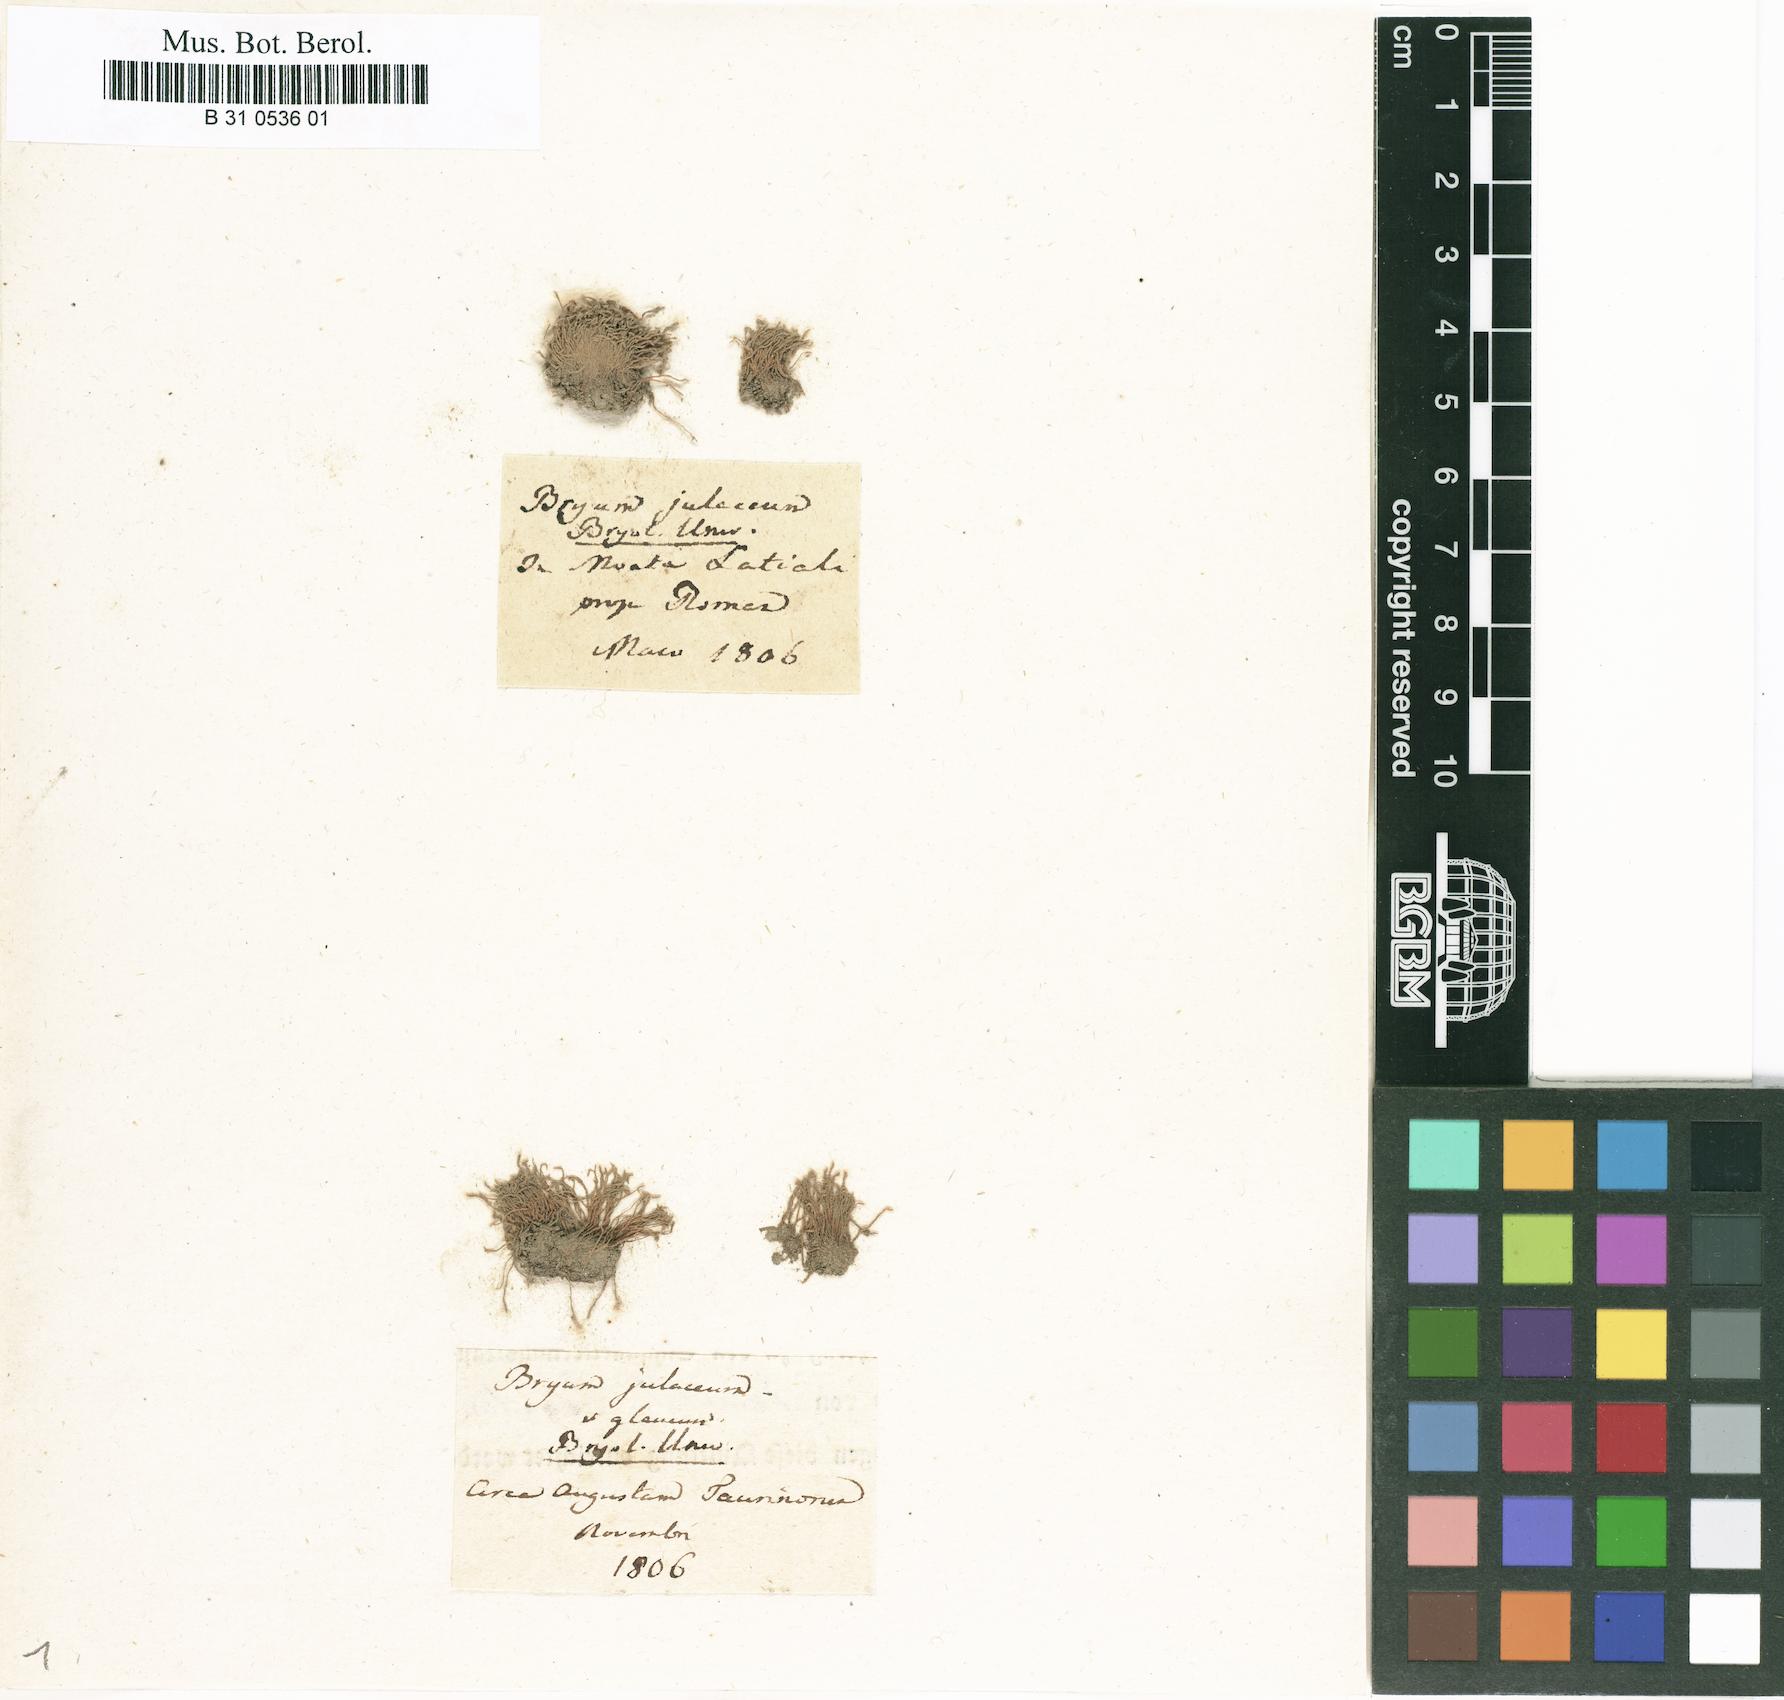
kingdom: Plantae
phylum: Bryophyta
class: Bryopsida
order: Bryales
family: Bryaceae
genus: Anomobryum
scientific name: Anomobryum julaceum
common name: Slender silver moss
